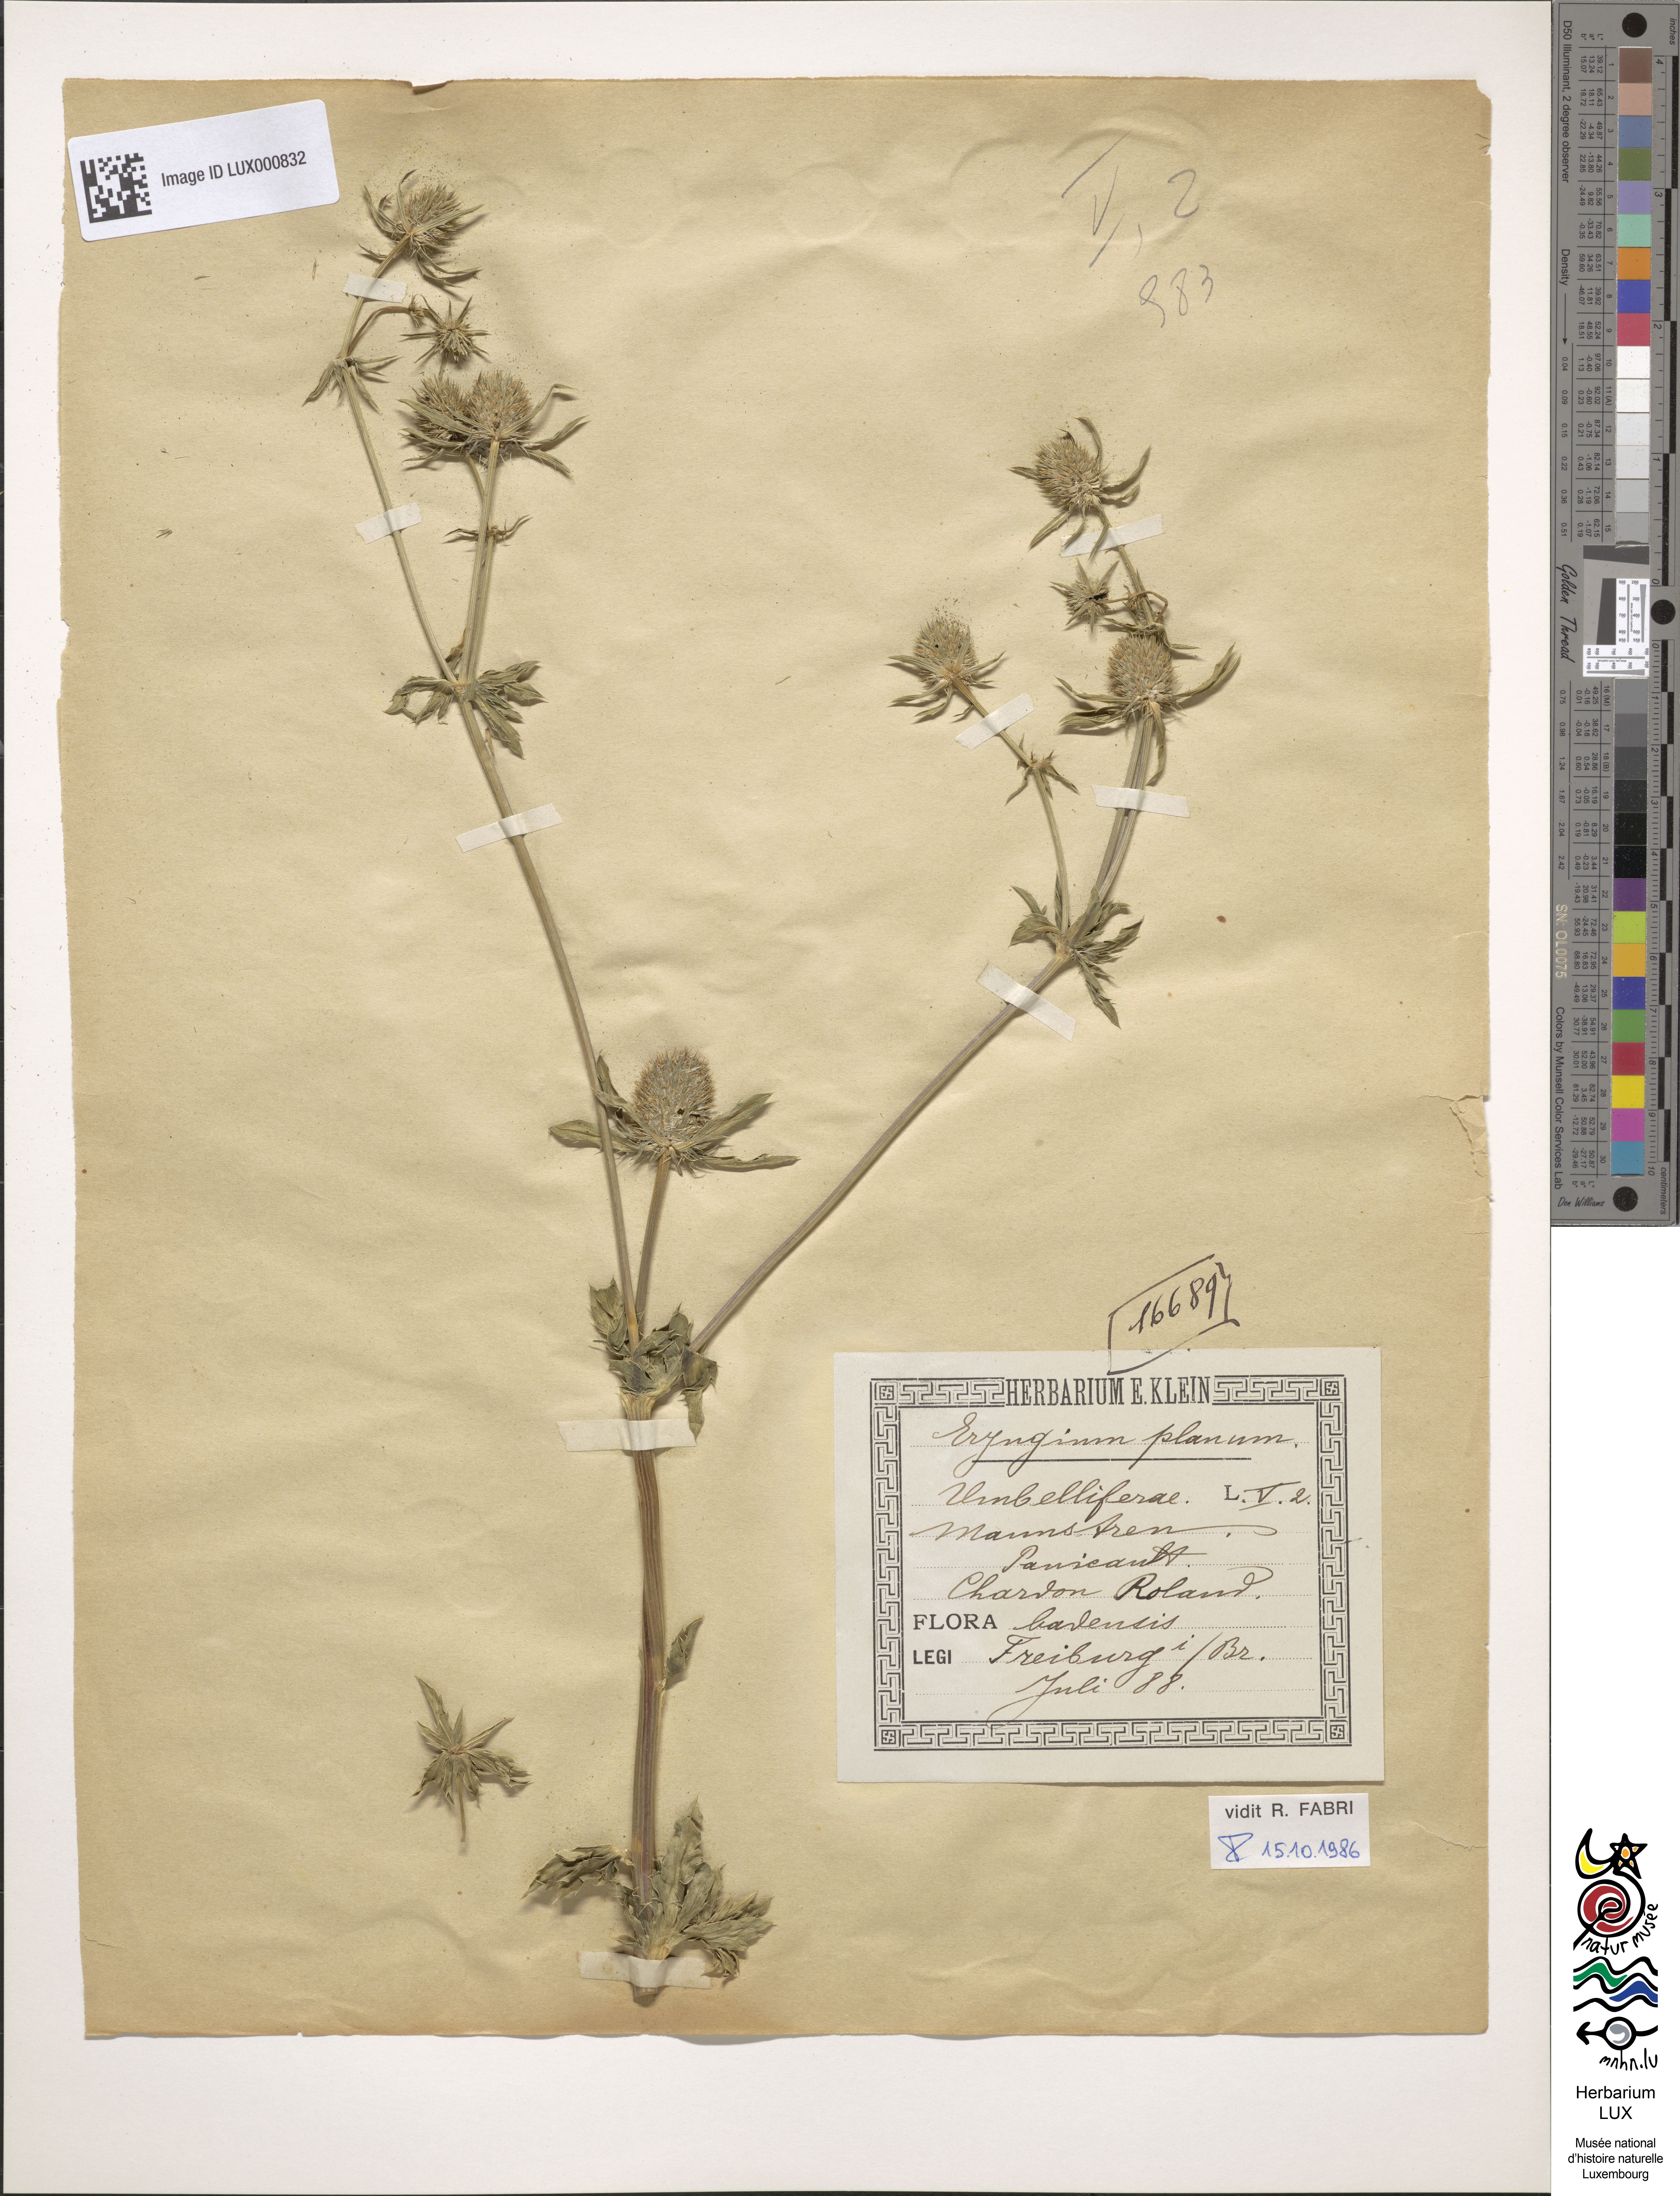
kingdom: Plantae
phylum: Tracheophyta
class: Magnoliopsida
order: Apiales
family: Apiaceae
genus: Eryngium
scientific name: Eryngium planum
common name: Blue eryngo
